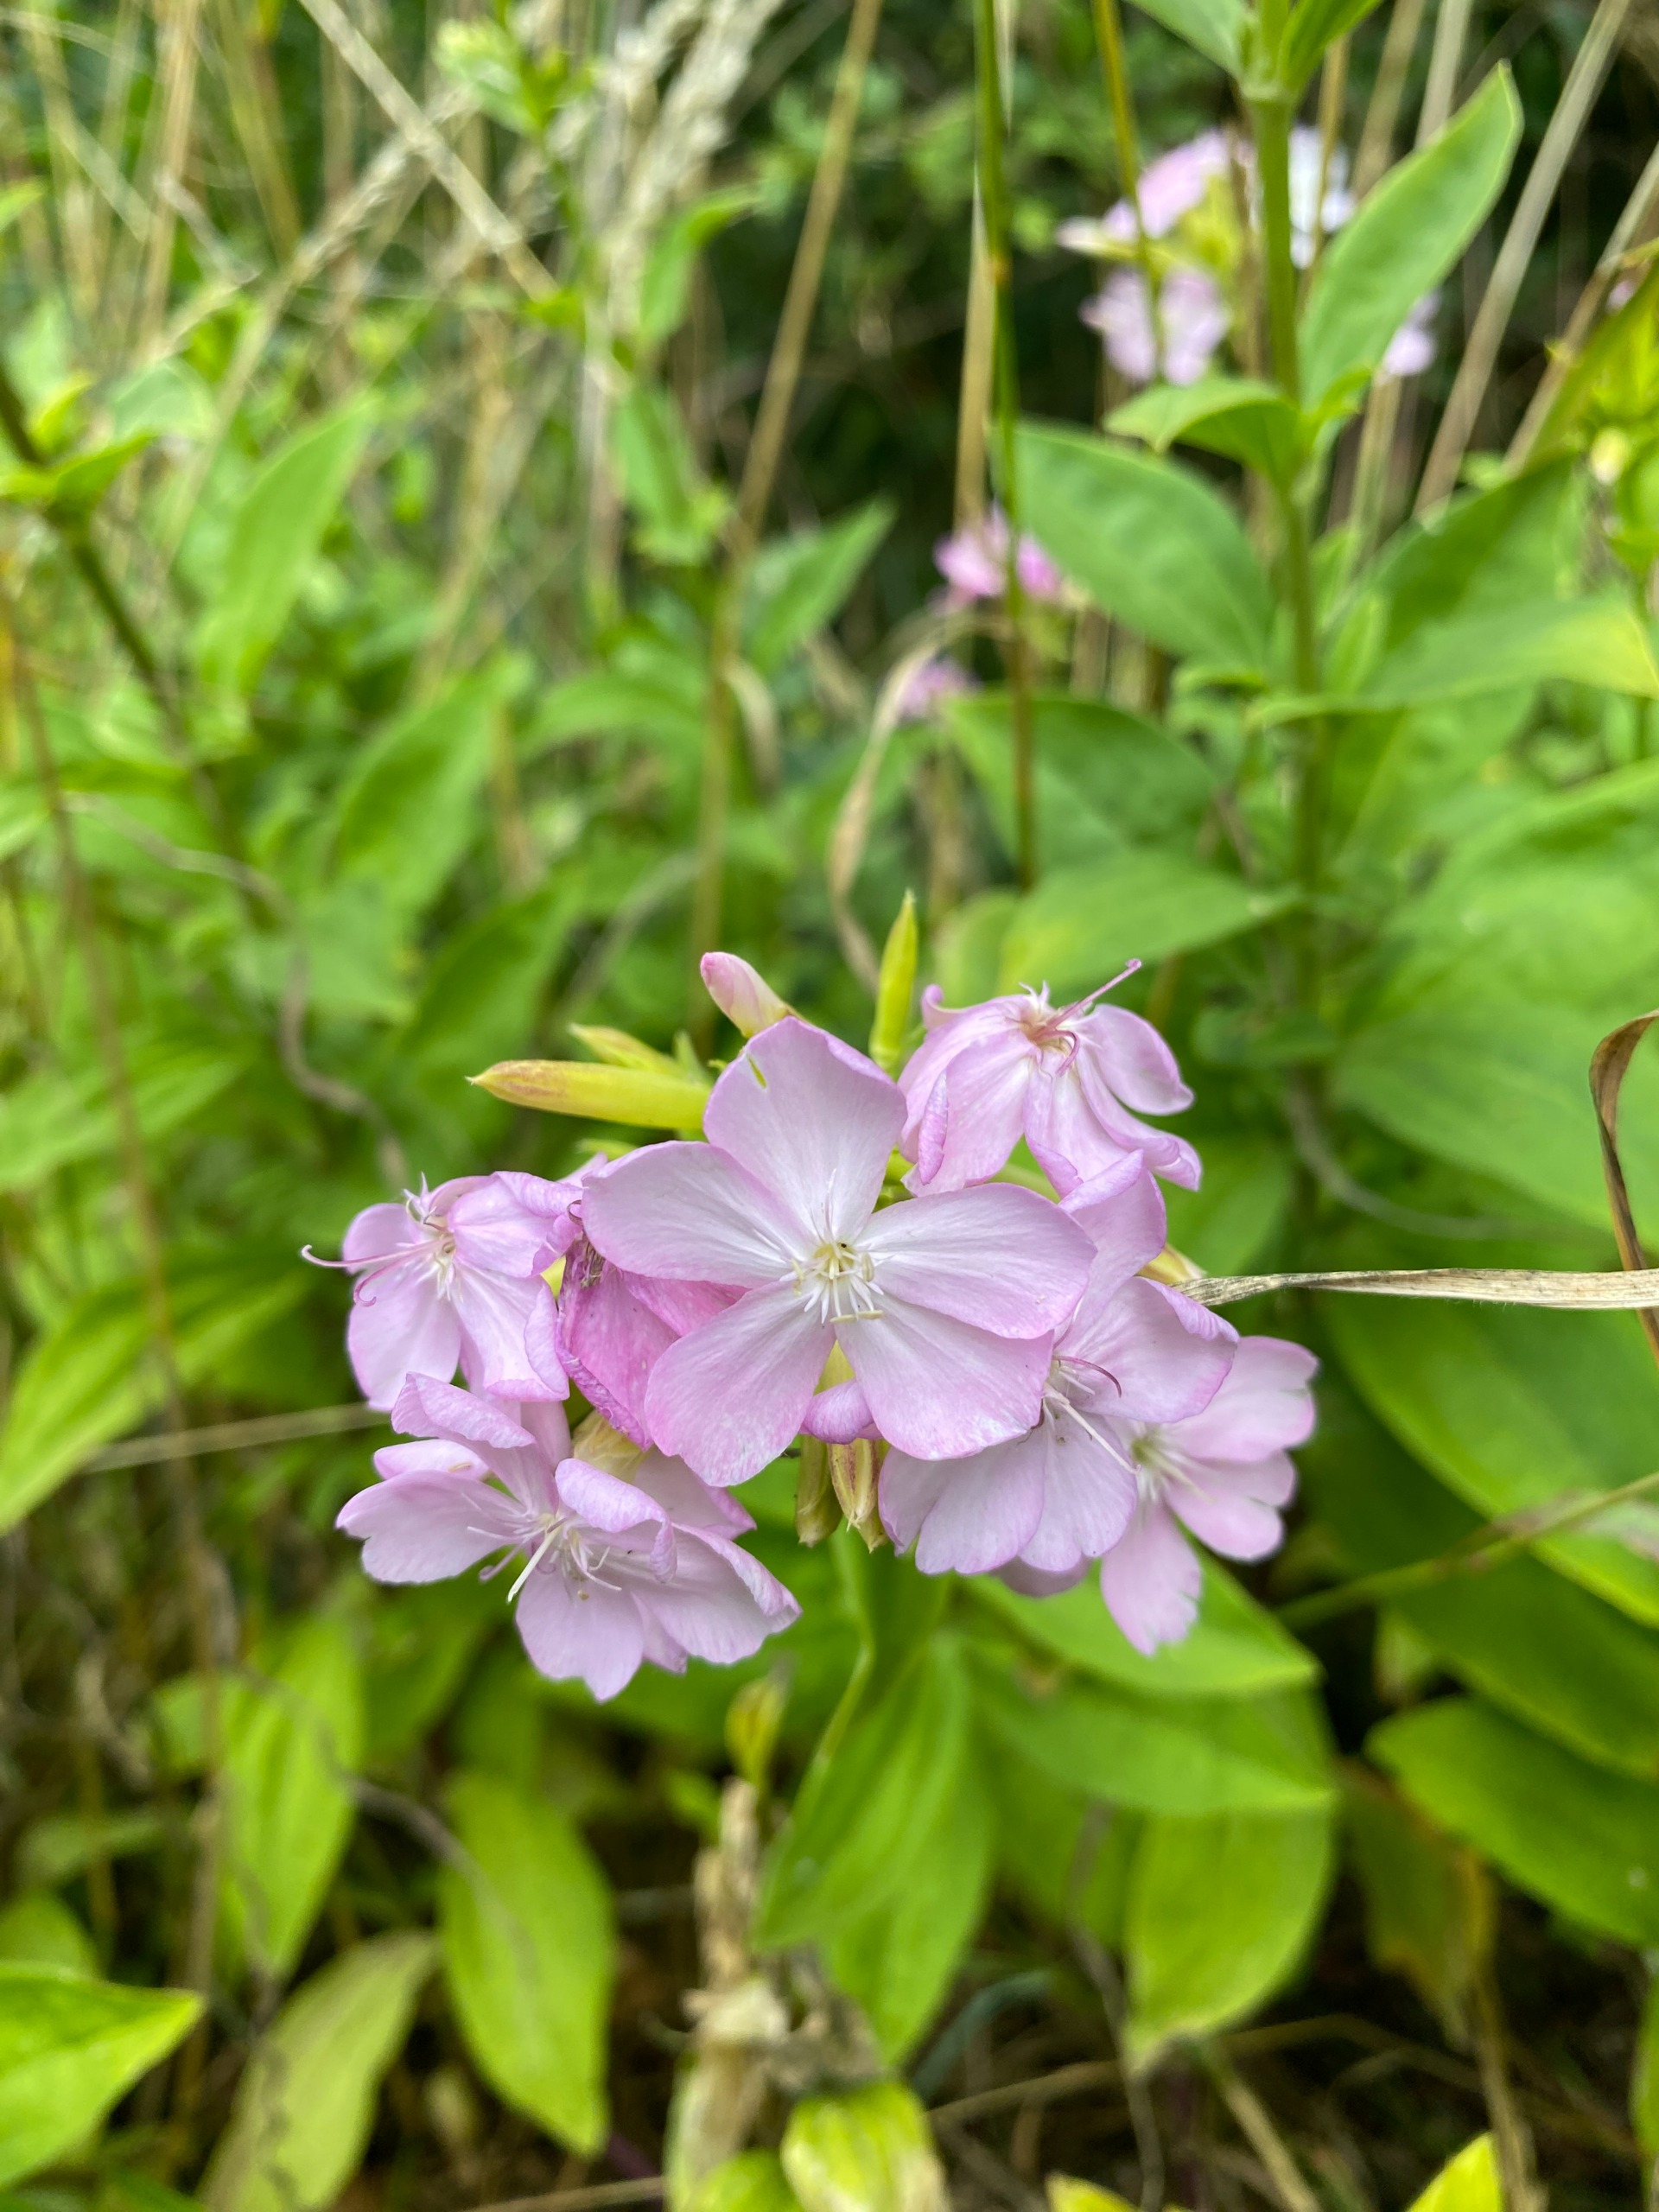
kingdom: Plantae
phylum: Tracheophyta
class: Magnoliopsida
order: Caryophyllales
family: Caryophyllaceae
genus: Saponaria
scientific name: Saponaria officinalis
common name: Sæbeurt
